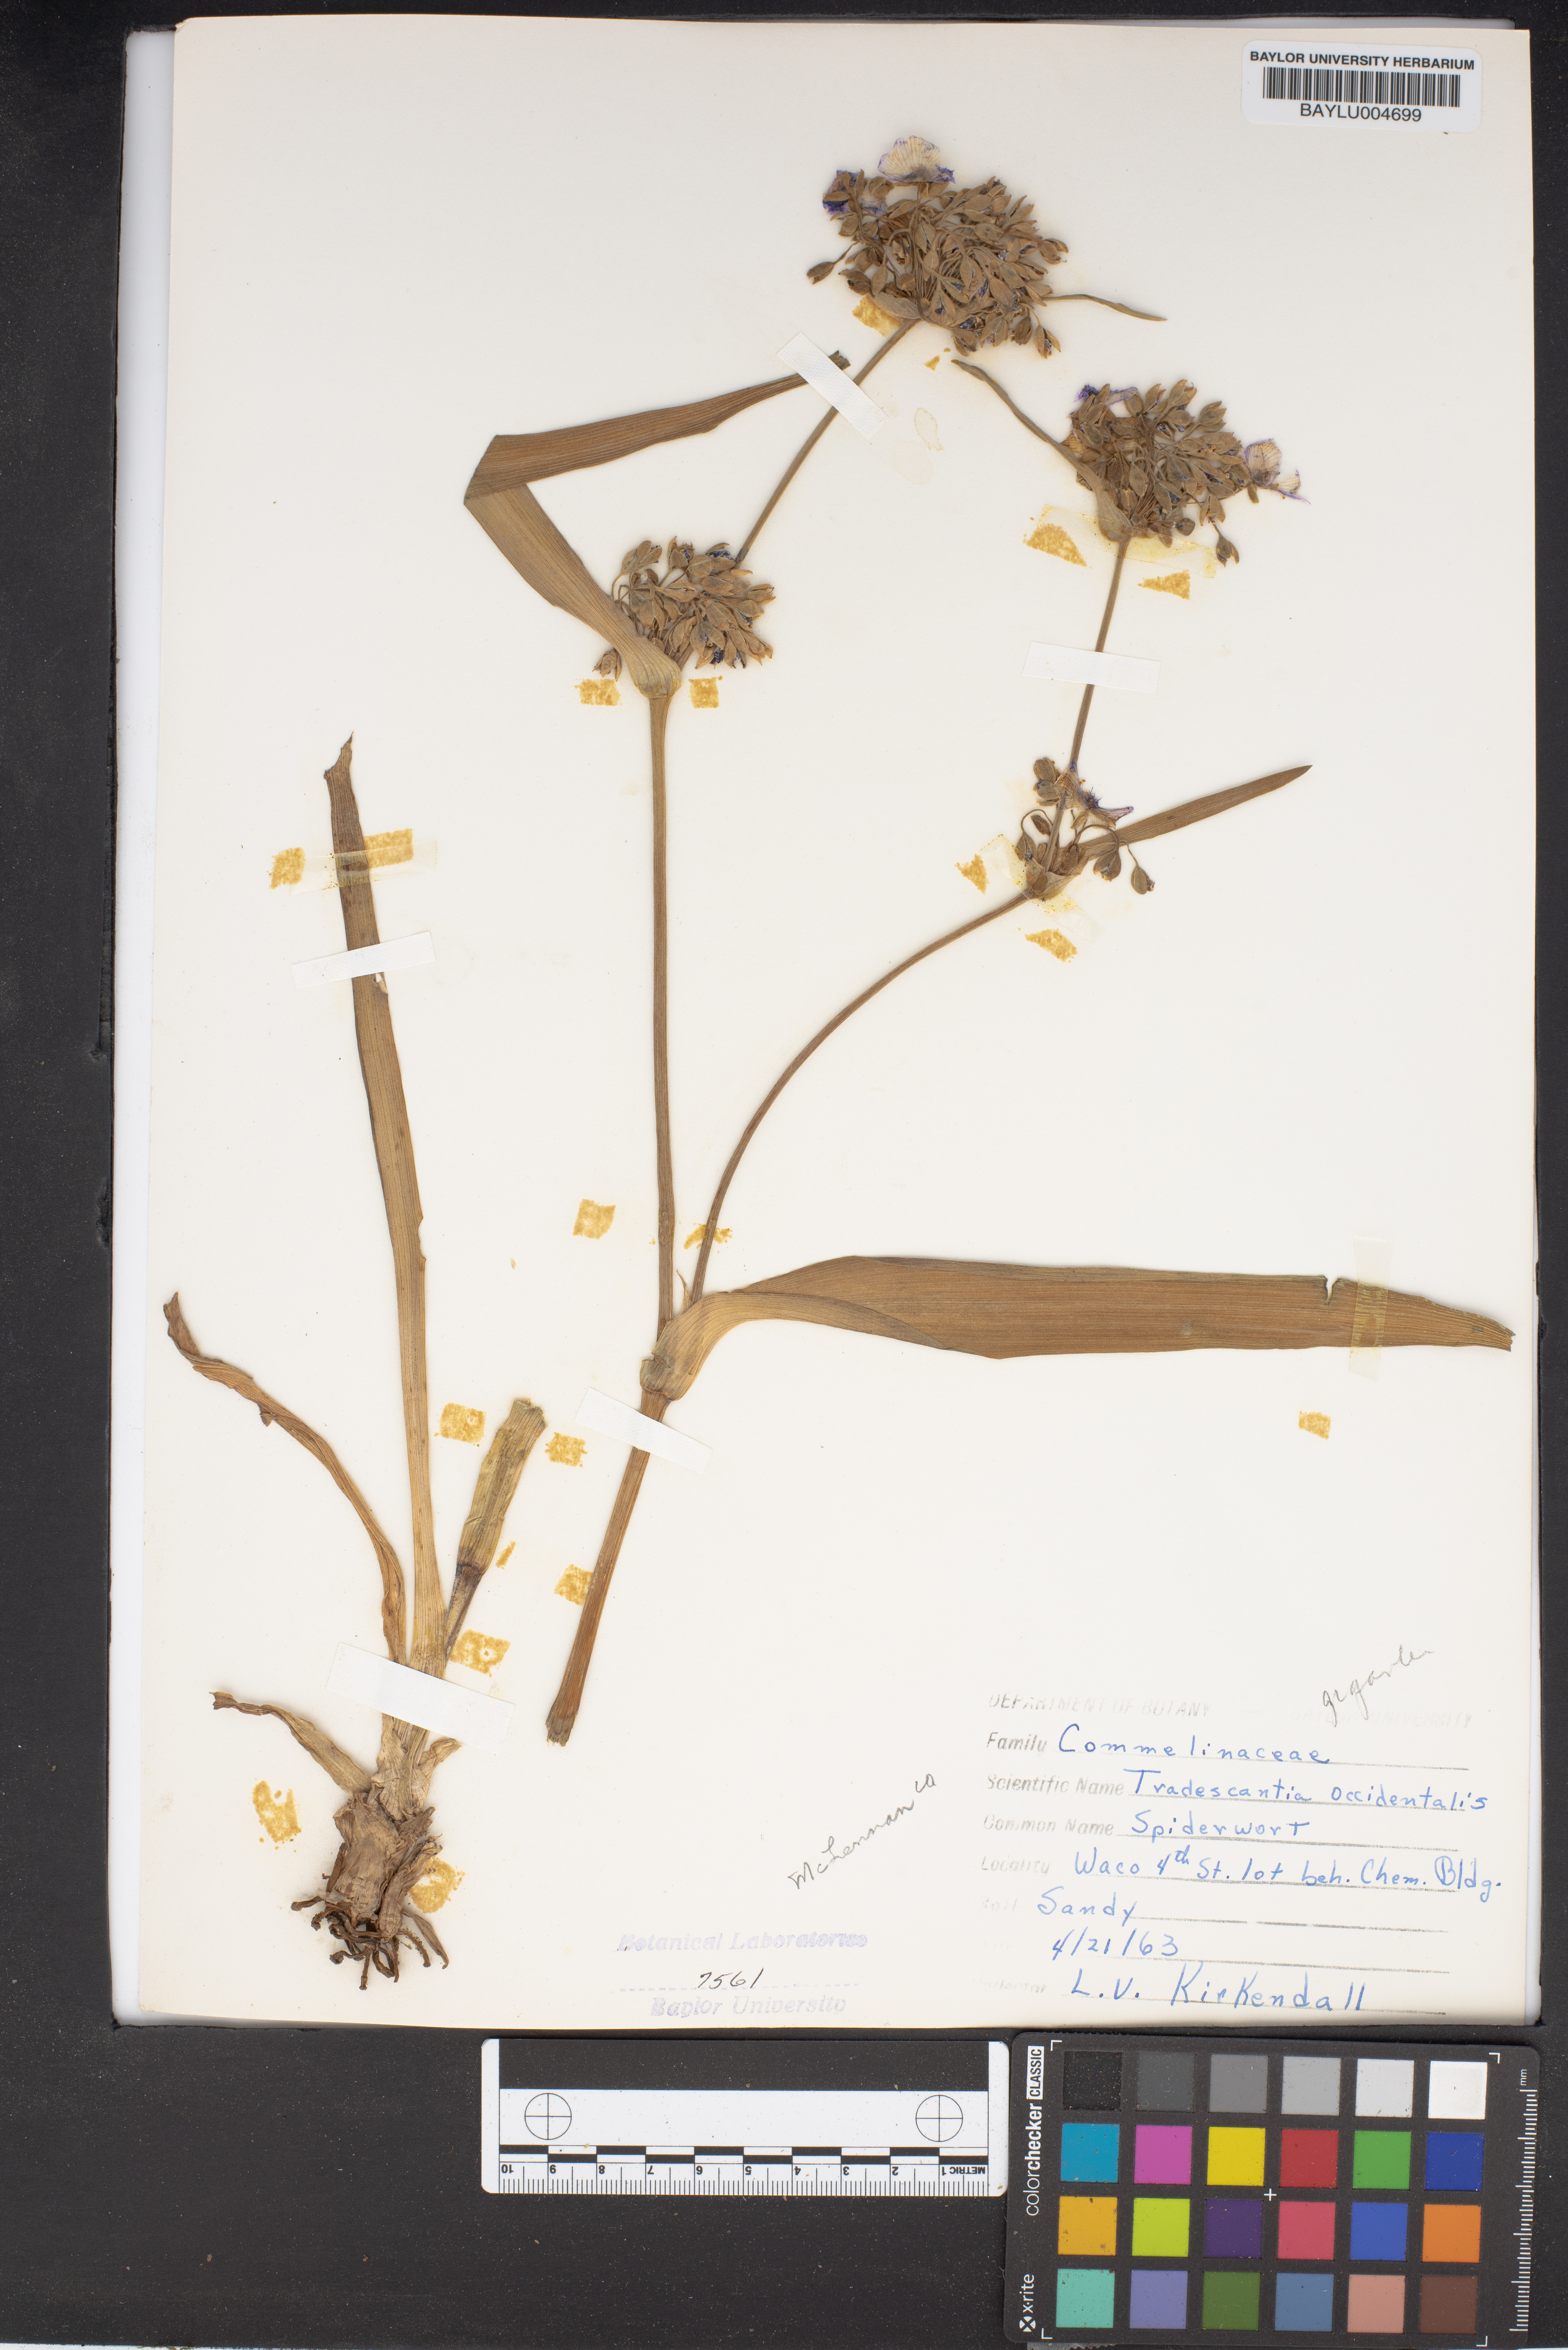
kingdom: Plantae
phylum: Tracheophyta
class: Liliopsida
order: Commelinales
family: Commelinaceae
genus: Tradescantia
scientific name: Tradescantia occidentalis
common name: Prairie spiderwort
